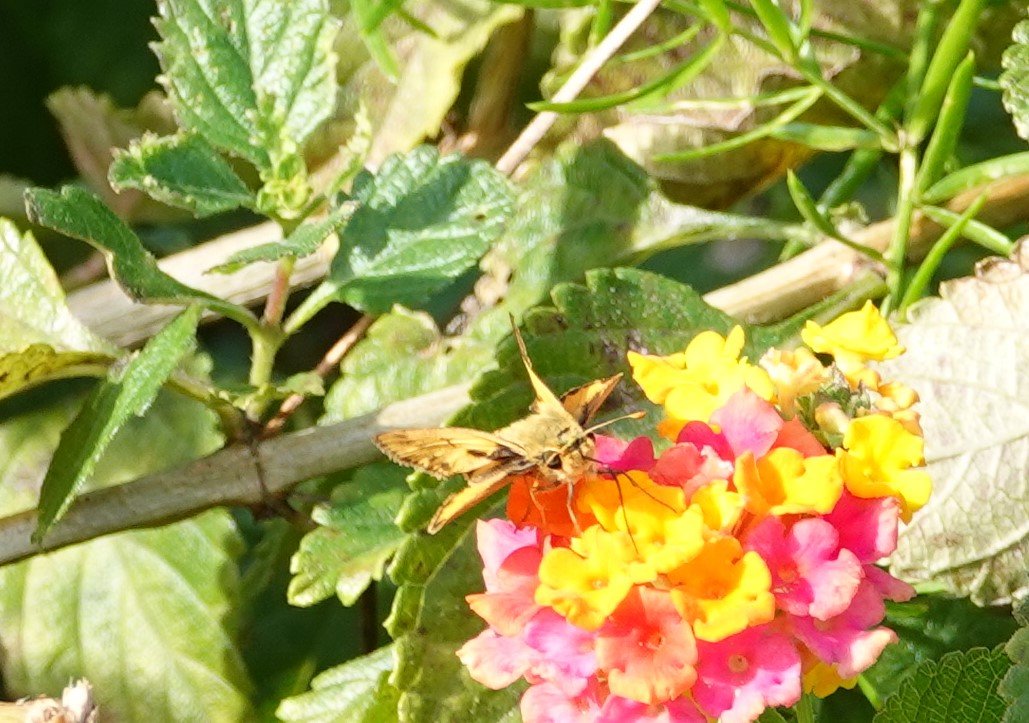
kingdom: Animalia
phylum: Arthropoda
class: Insecta
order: Lepidoptera
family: Hesperiidae
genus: Hylephila
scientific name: Hylephila phyleus
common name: Fiery Skipper
